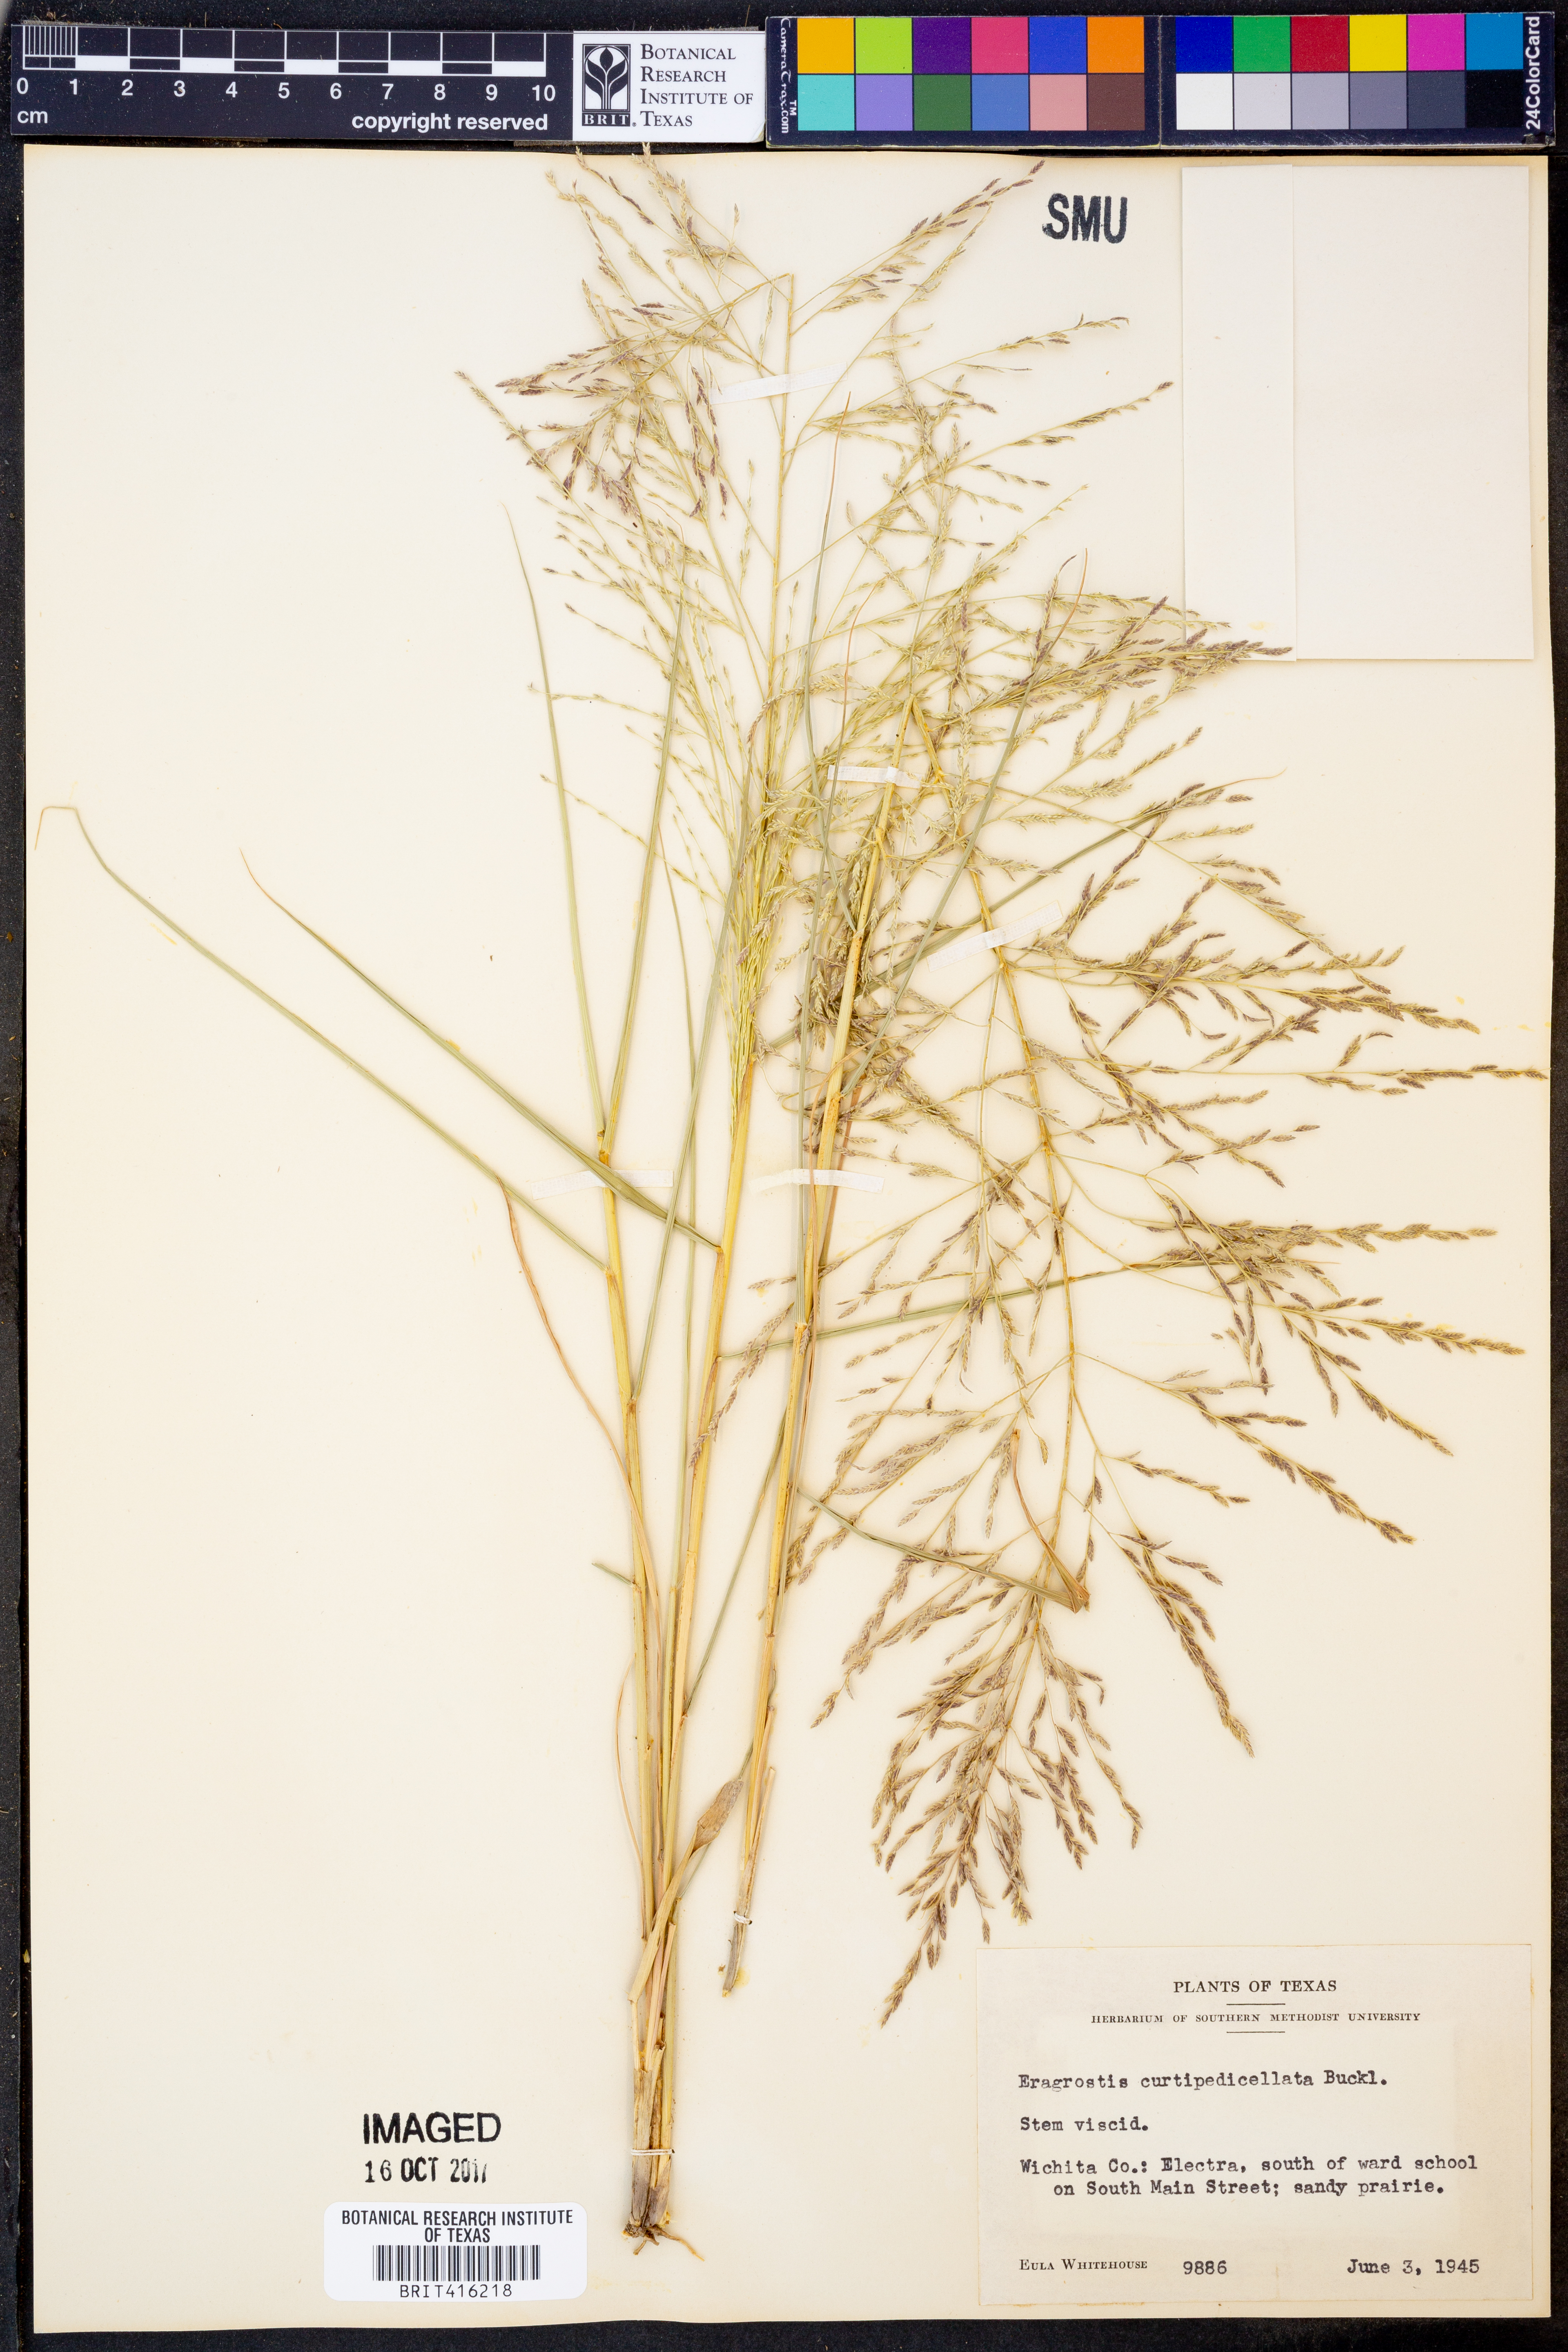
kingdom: Plantae
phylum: Tracheophyta
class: Liliopsida
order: Poales
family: Poaceae
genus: Eragrostis
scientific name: Eragrostis curtipedicellata
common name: Gummy love grass
